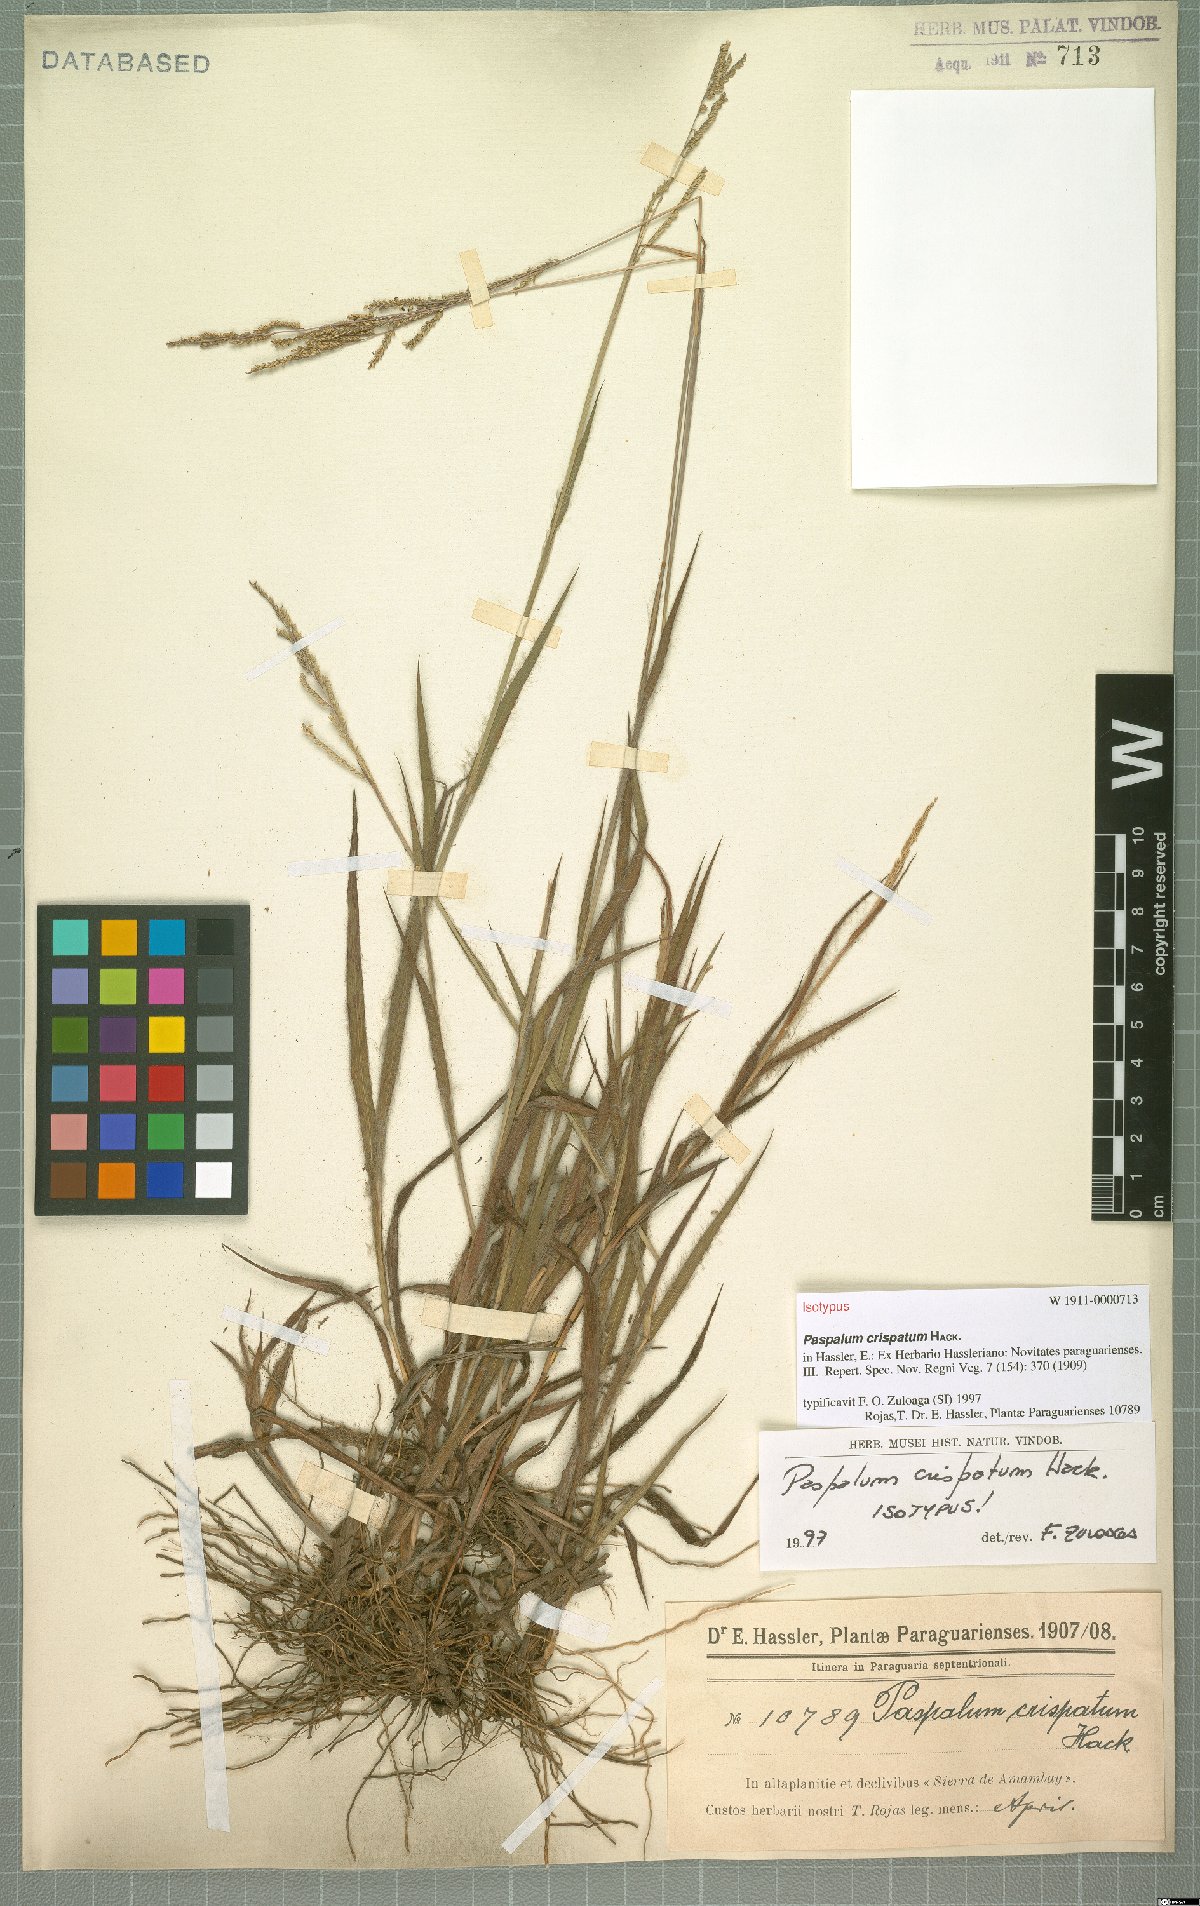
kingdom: Plantae
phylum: Tracheophyta
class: Liliopsida
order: Poales
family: Poaceae
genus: Paspalum
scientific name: Paspalum crispatum
